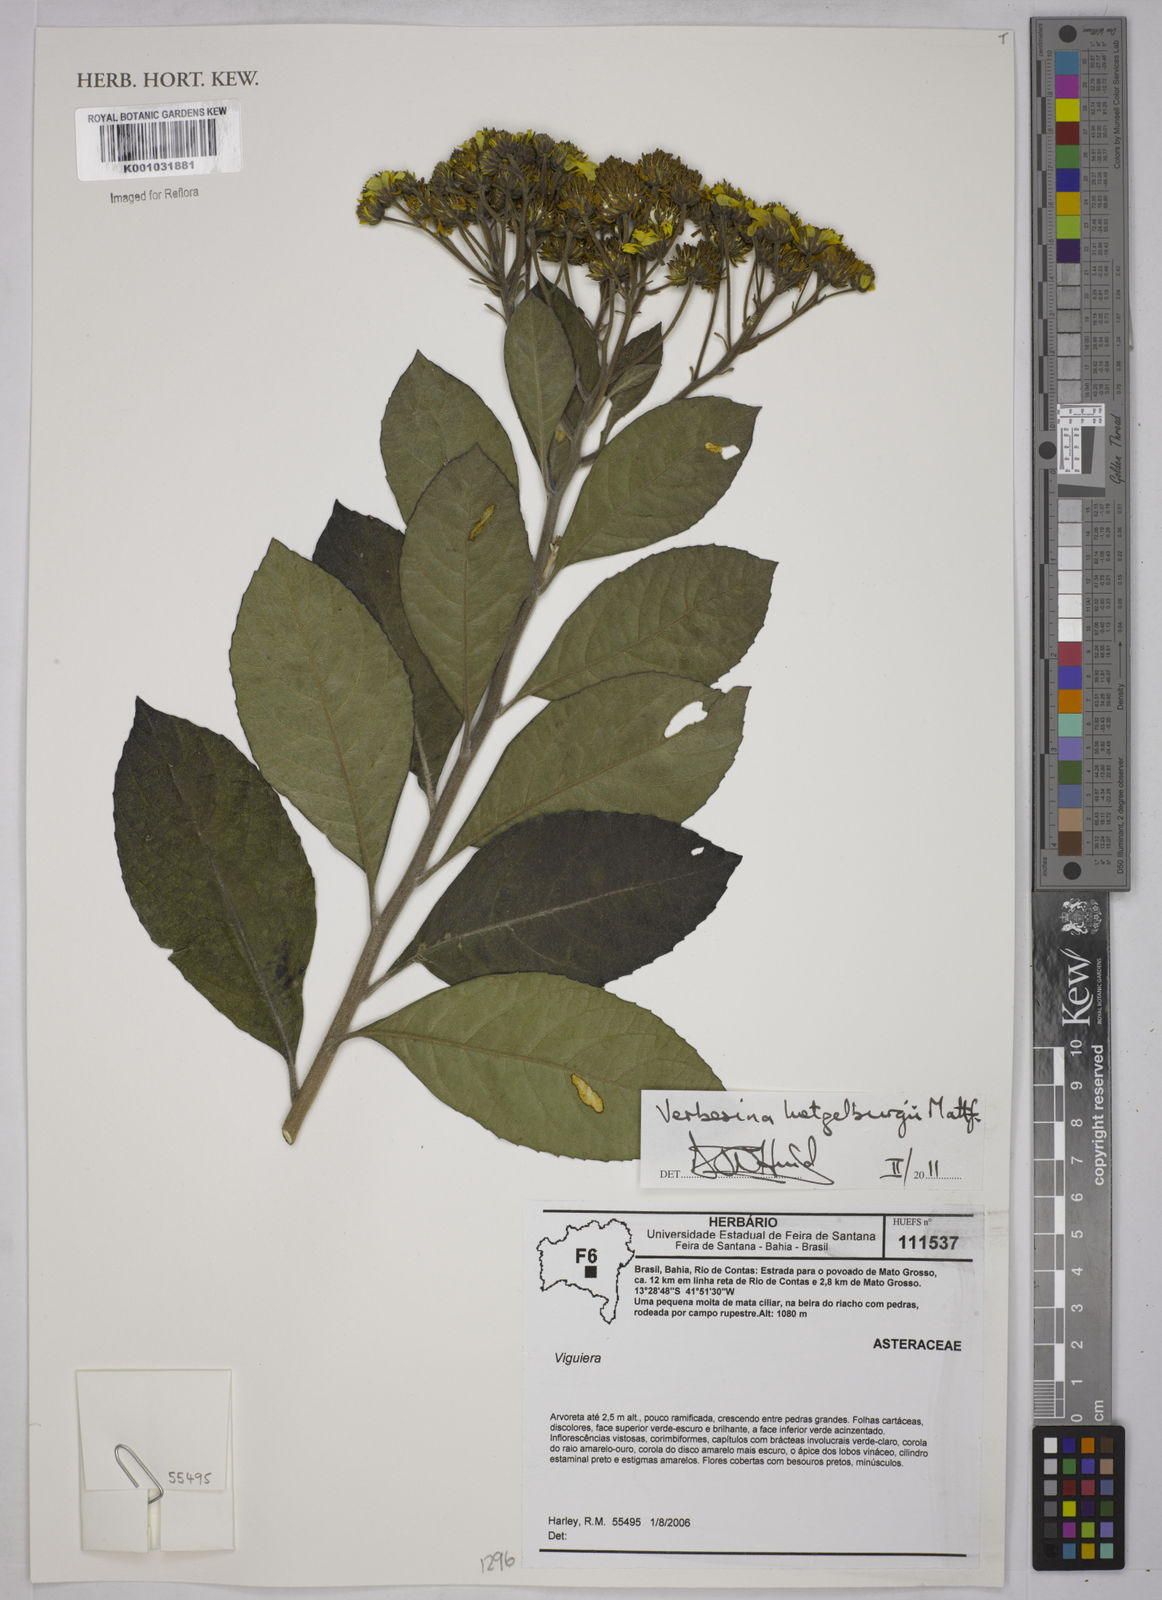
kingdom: Plantae
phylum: Tracheophyta
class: Magnoliopsida
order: Asterales
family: Asteraceae
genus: Verbesina
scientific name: Verbesina luetzelburgii
